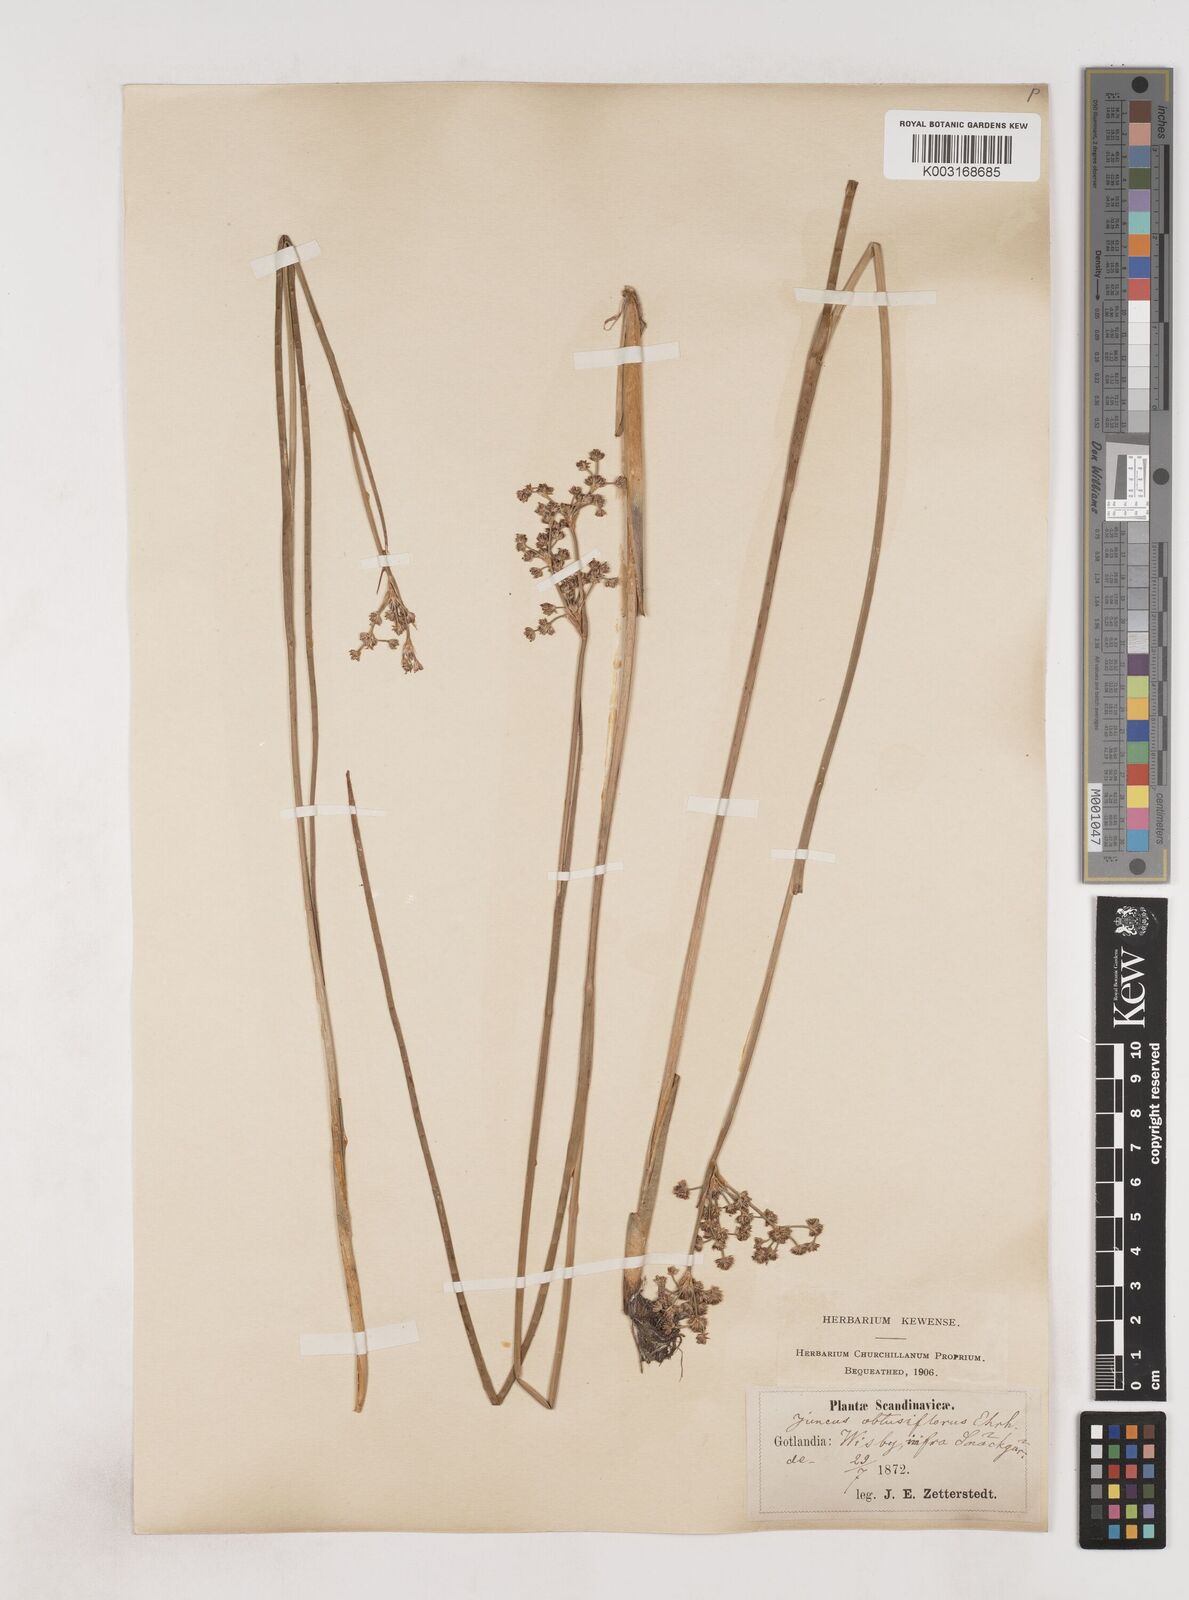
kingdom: Plantae
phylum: Tracheophyta
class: Liliopsida
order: Poales
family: Juncaceae
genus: Juncus
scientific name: Juncus subnodulosus
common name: Blunt-flowered rush
